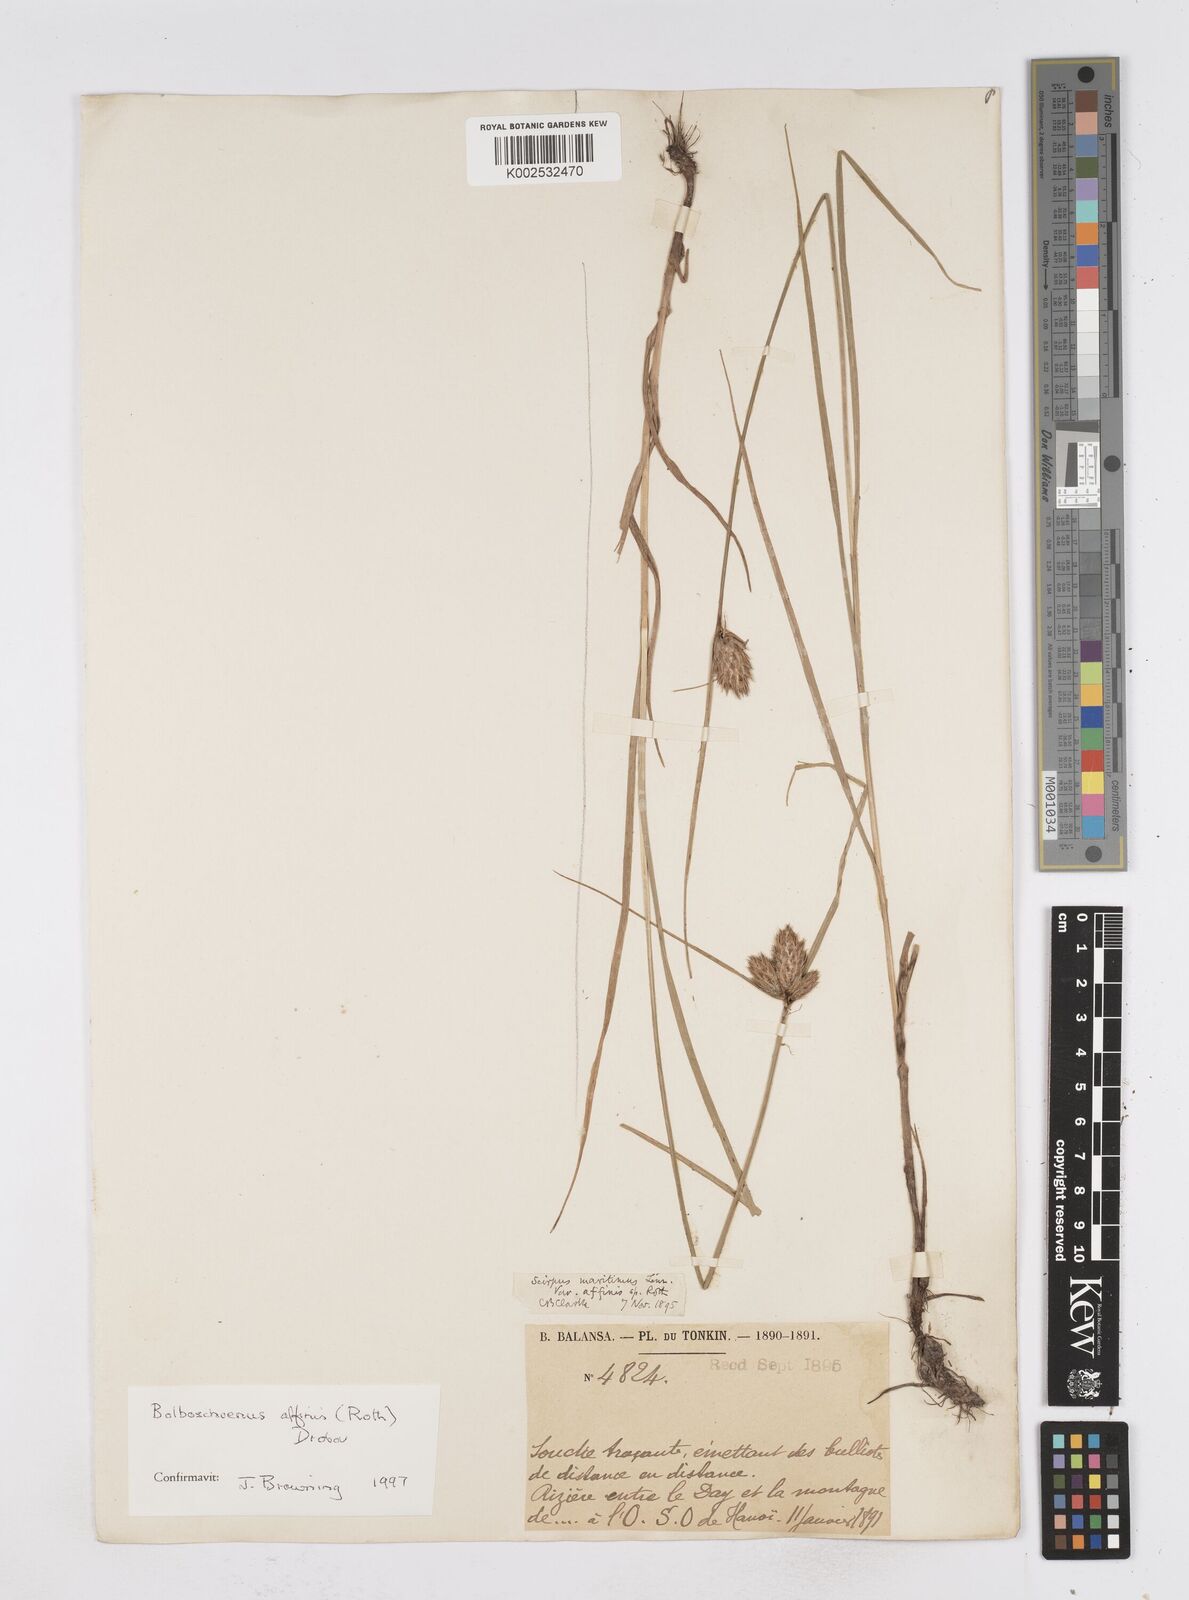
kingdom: Plantae
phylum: Tracheophyta
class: Liliopsida
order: Poales
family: Cyperaceae
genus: Bolboschoenus
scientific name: Bolboschoenus maritimus
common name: Sea club-rush
